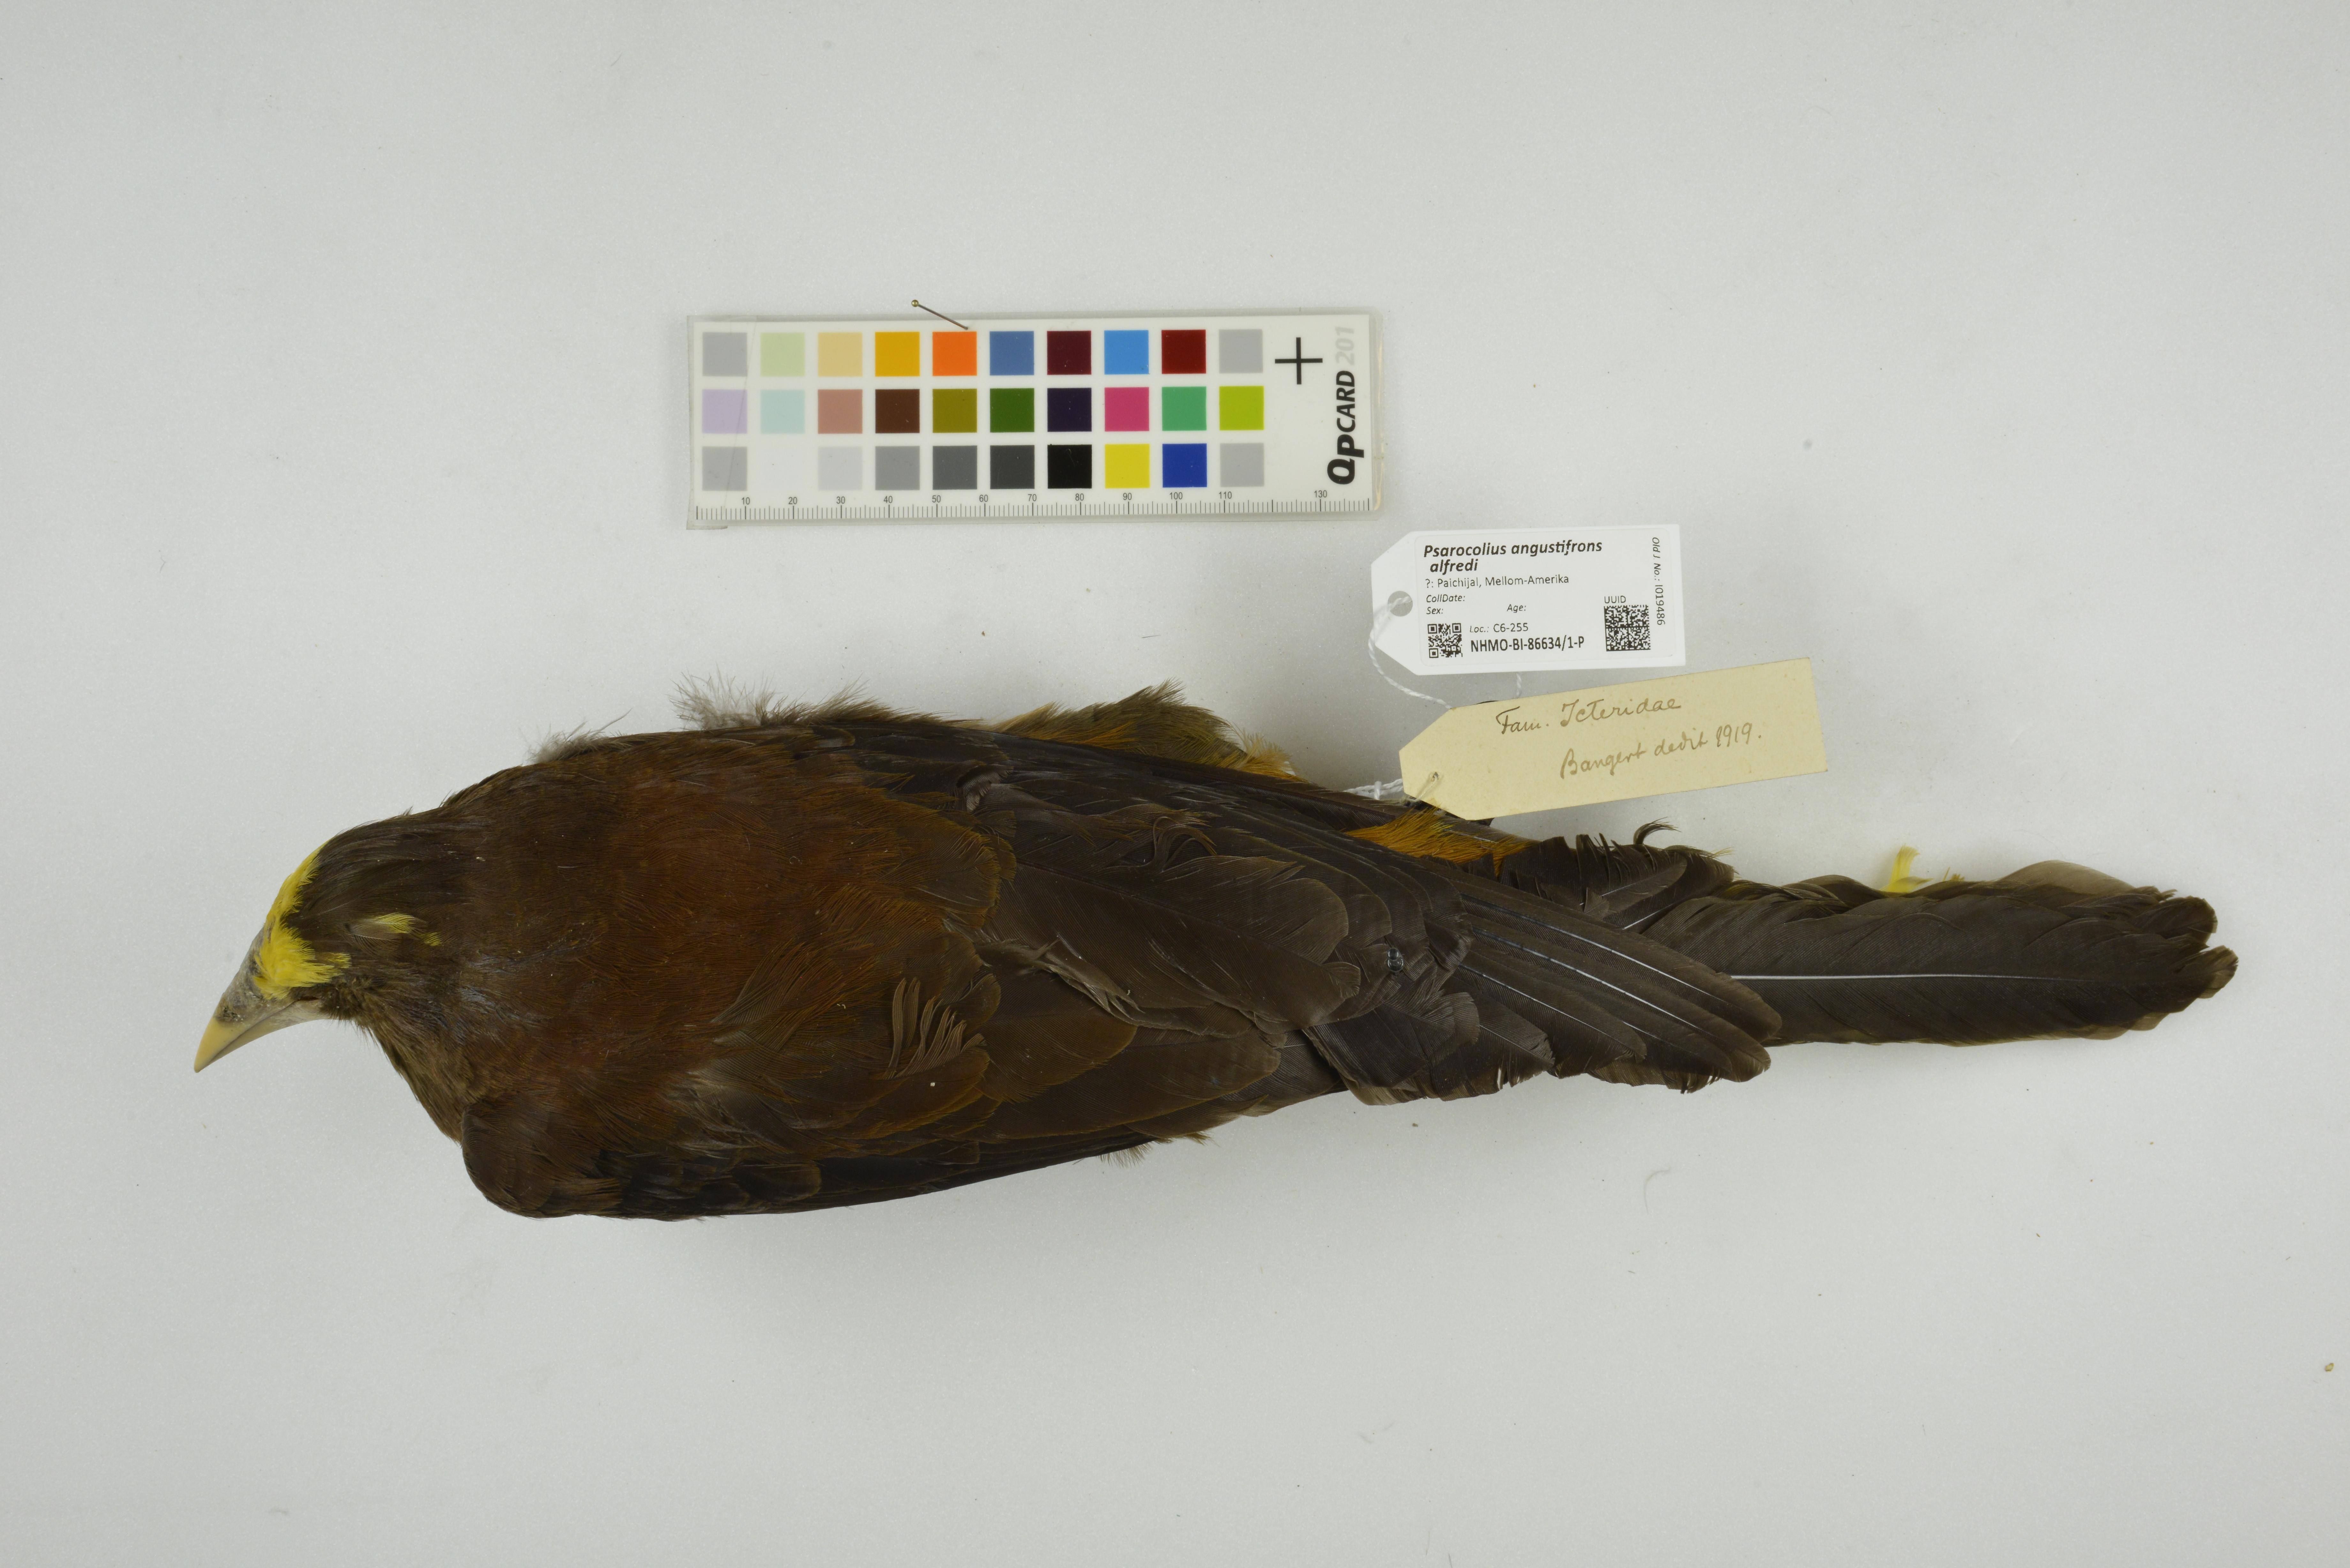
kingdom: Animalia
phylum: Chordata
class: Aves
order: Passeriformes
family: Icteridae
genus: Psarocolius
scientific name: Psarocolius angustifrons
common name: Russet-backed oropendola
